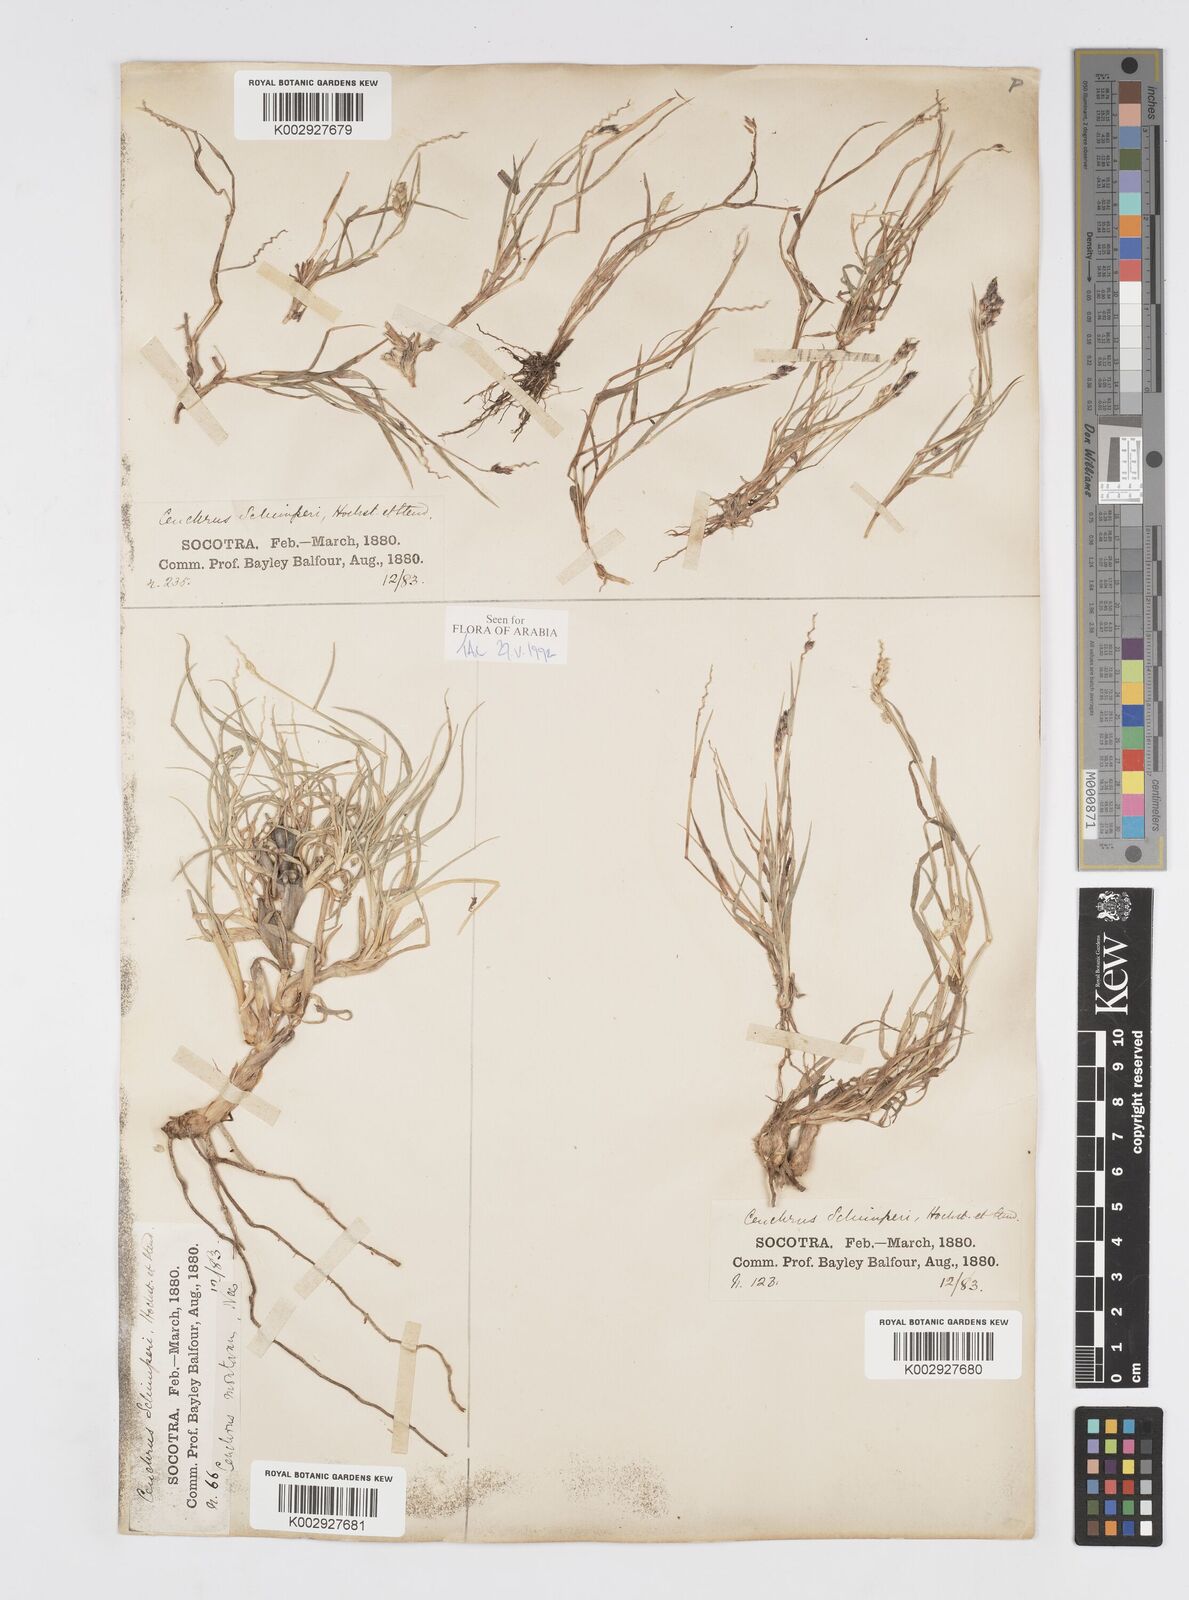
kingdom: Plantae
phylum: Tracheophyta
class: Liliopsida
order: Poales
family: Poaceae
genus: Cenchrus
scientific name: Cenchrus setigerus
